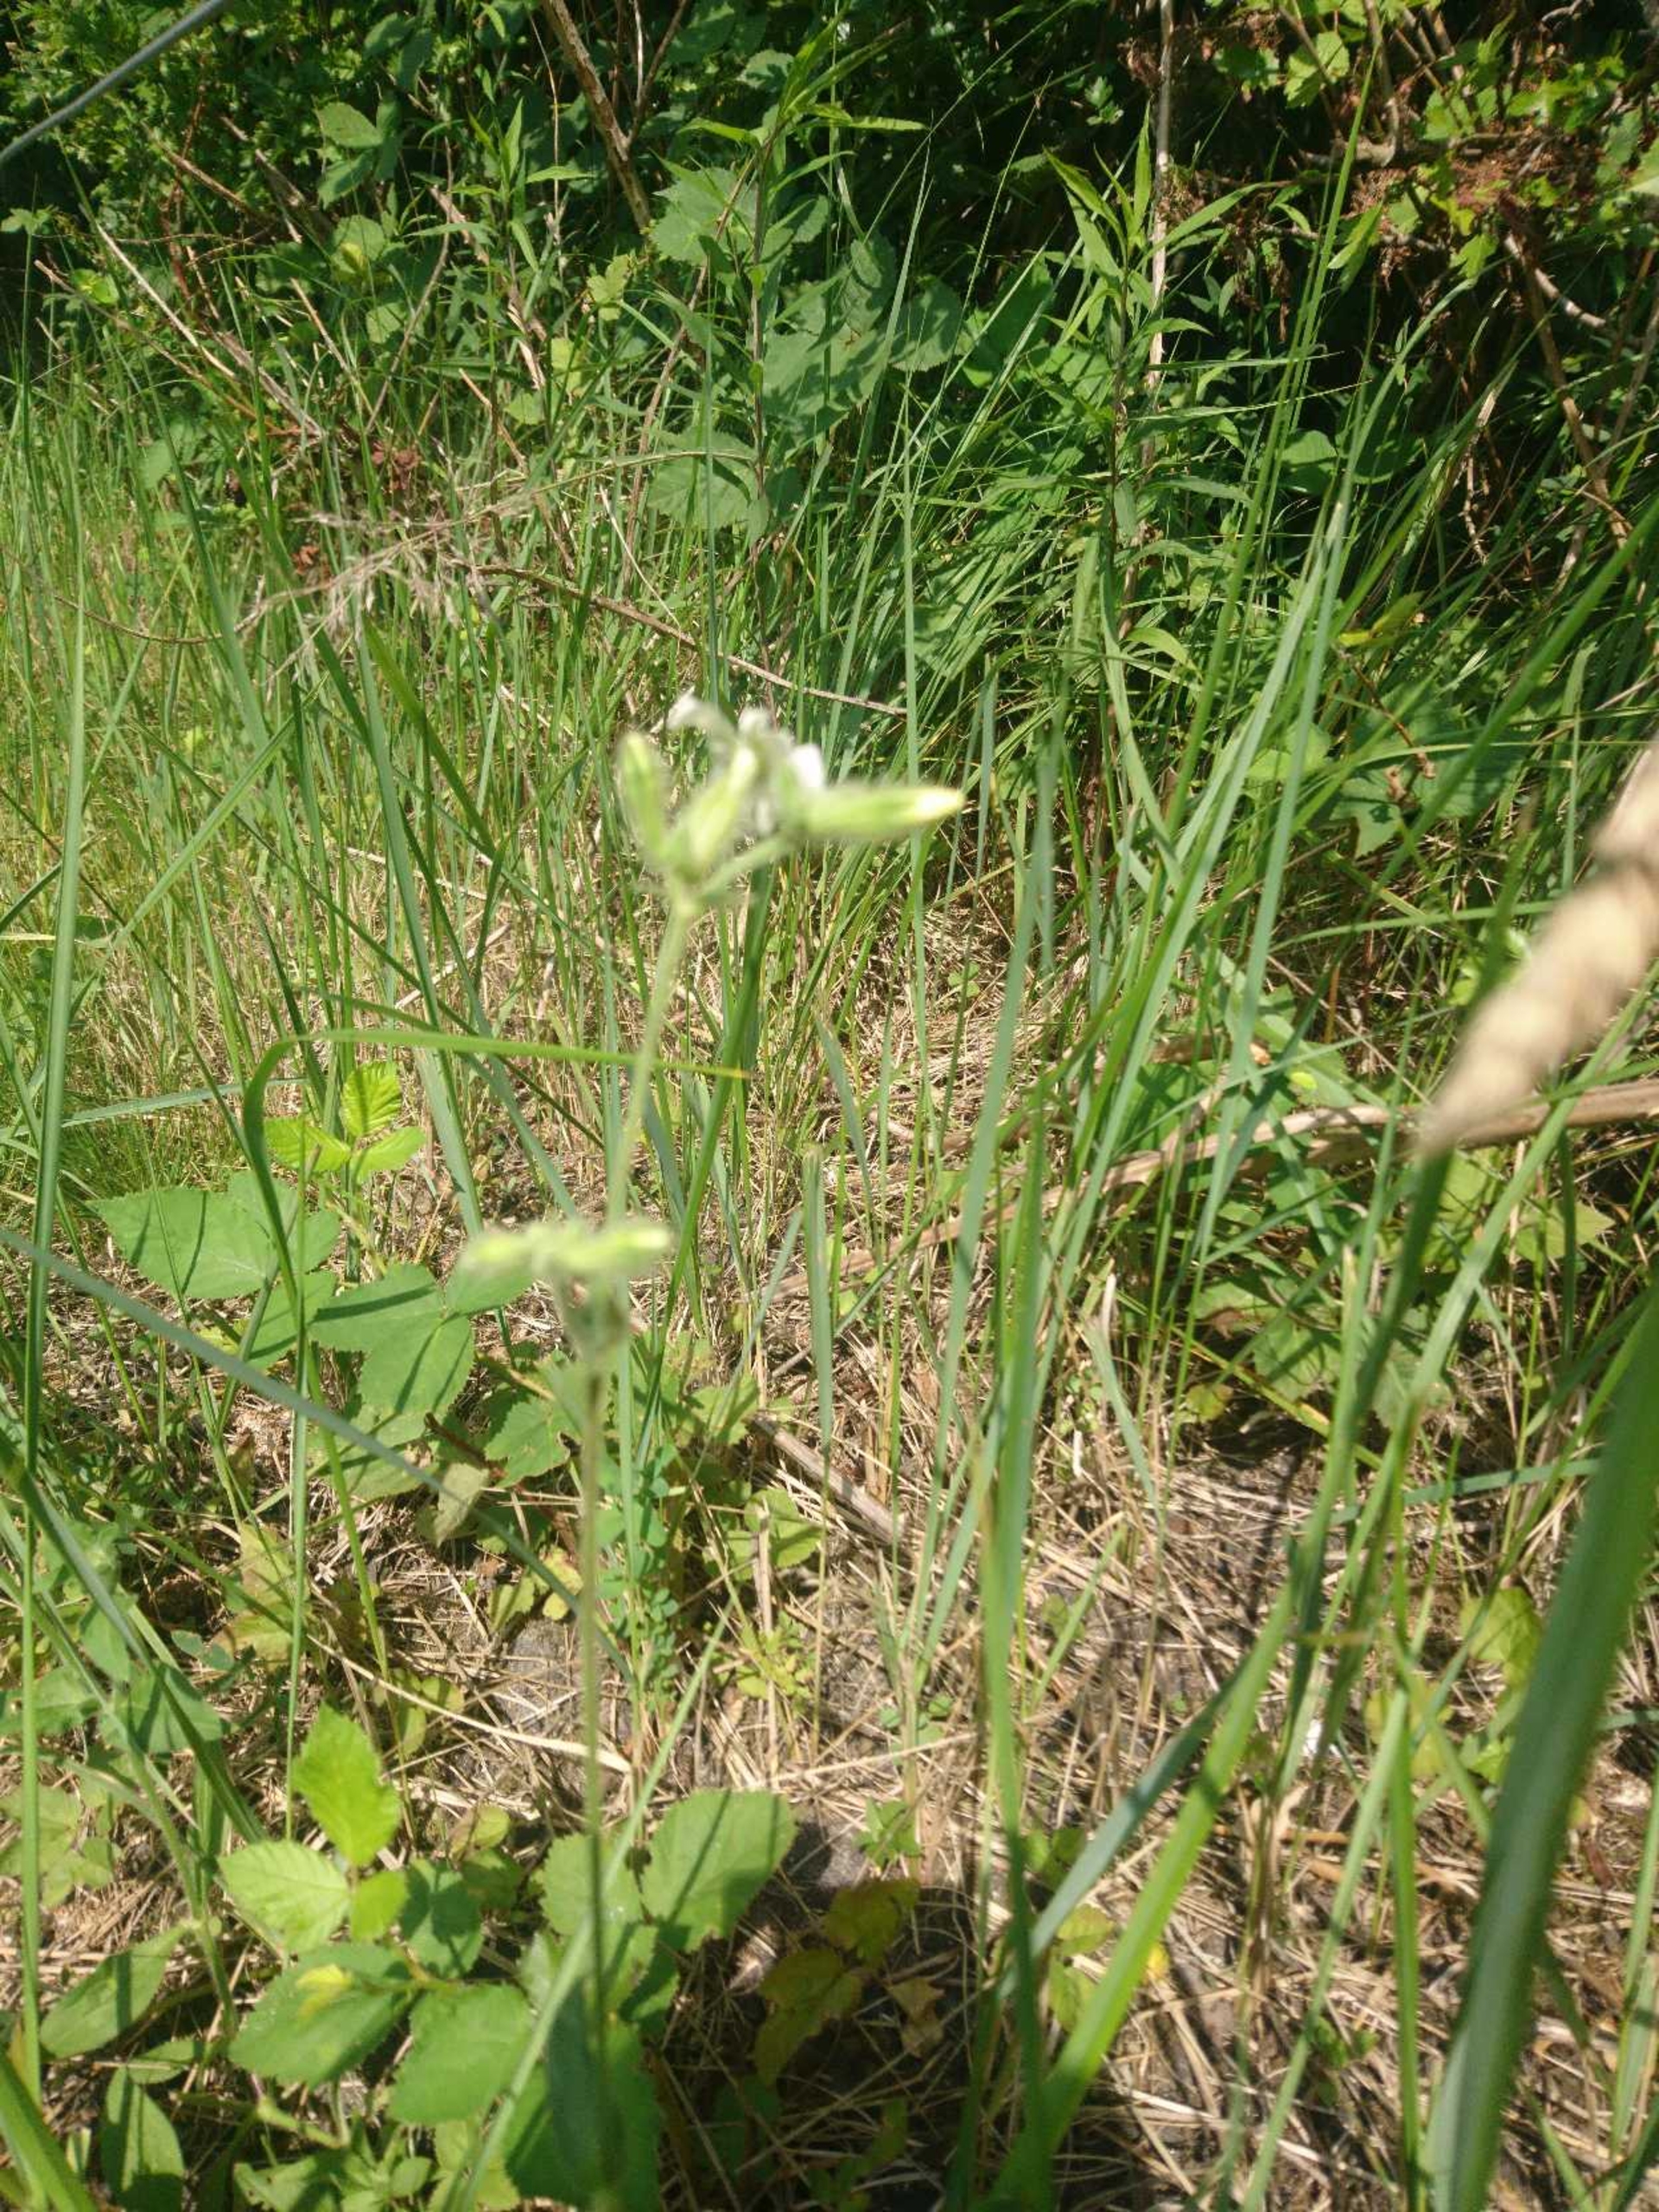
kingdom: Plantae
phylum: Tracheophyta
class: Magnoliopsida
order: Caryophyllales
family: Caryophyllaceae
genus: Silene
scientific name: Silene latifolia
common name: Aftenpragtstjerne
